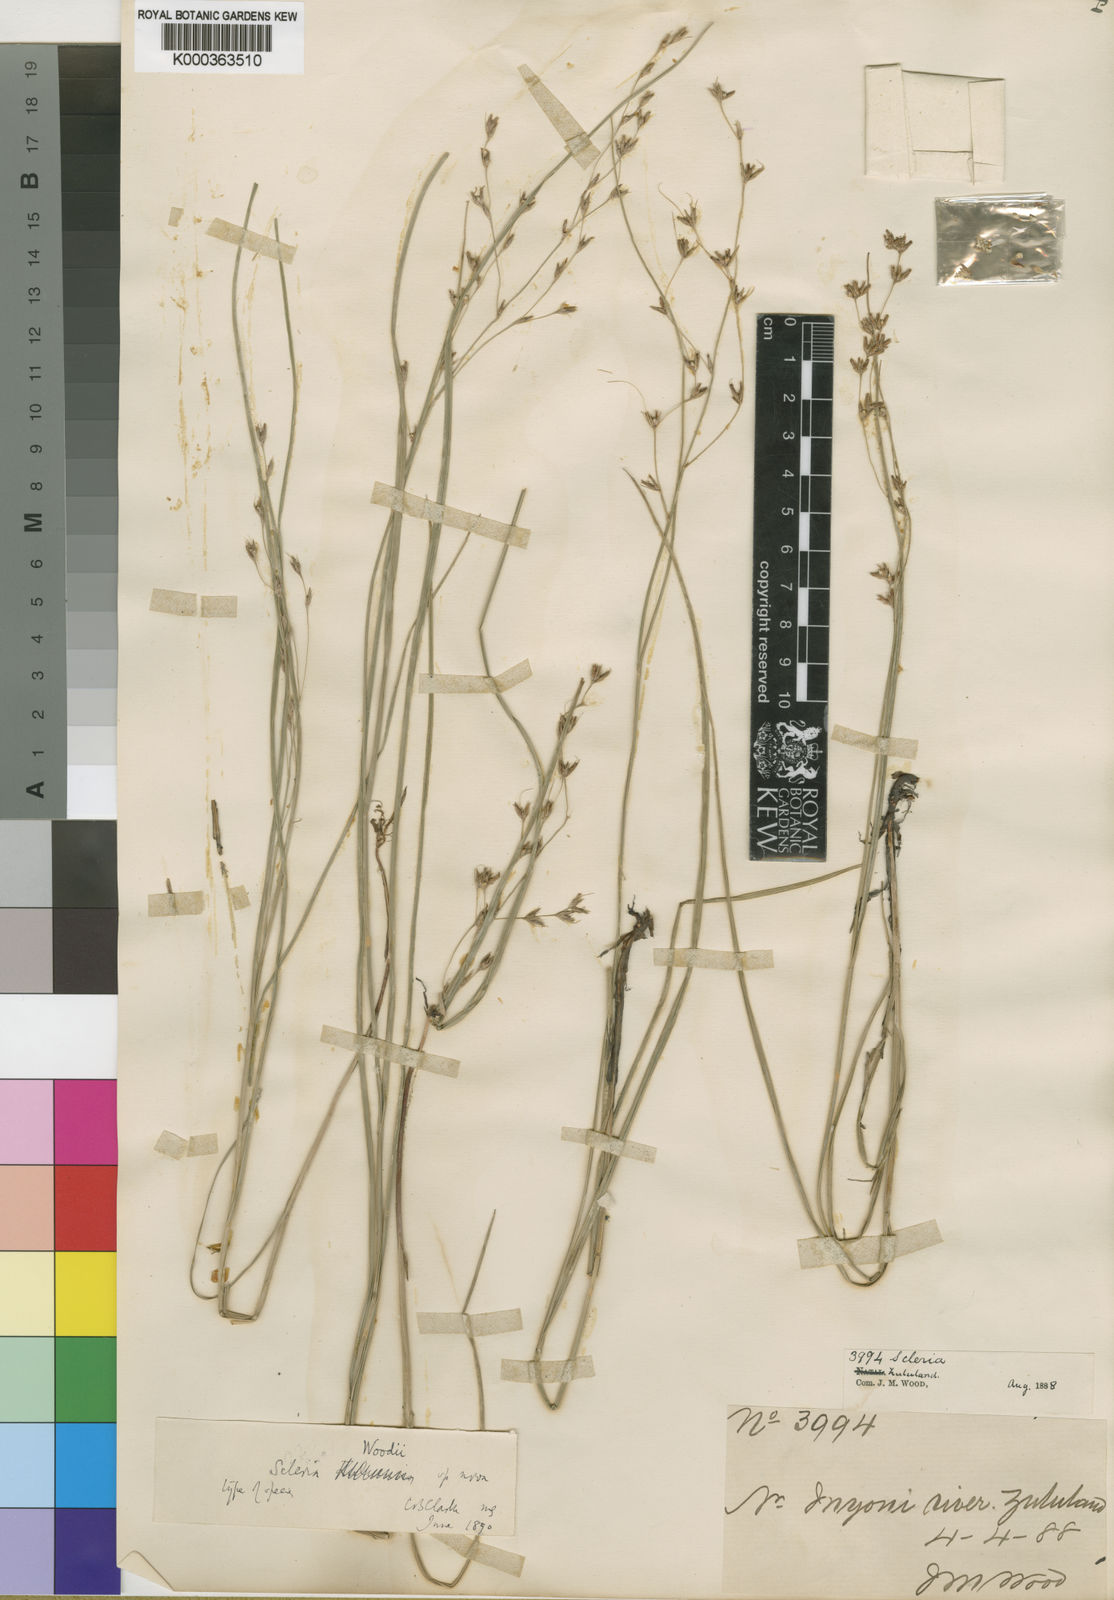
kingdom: Plantae
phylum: Tracheophyta
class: Liliopsida
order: Poales
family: Cyperaceae
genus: Scleria
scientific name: Scleria woodii
